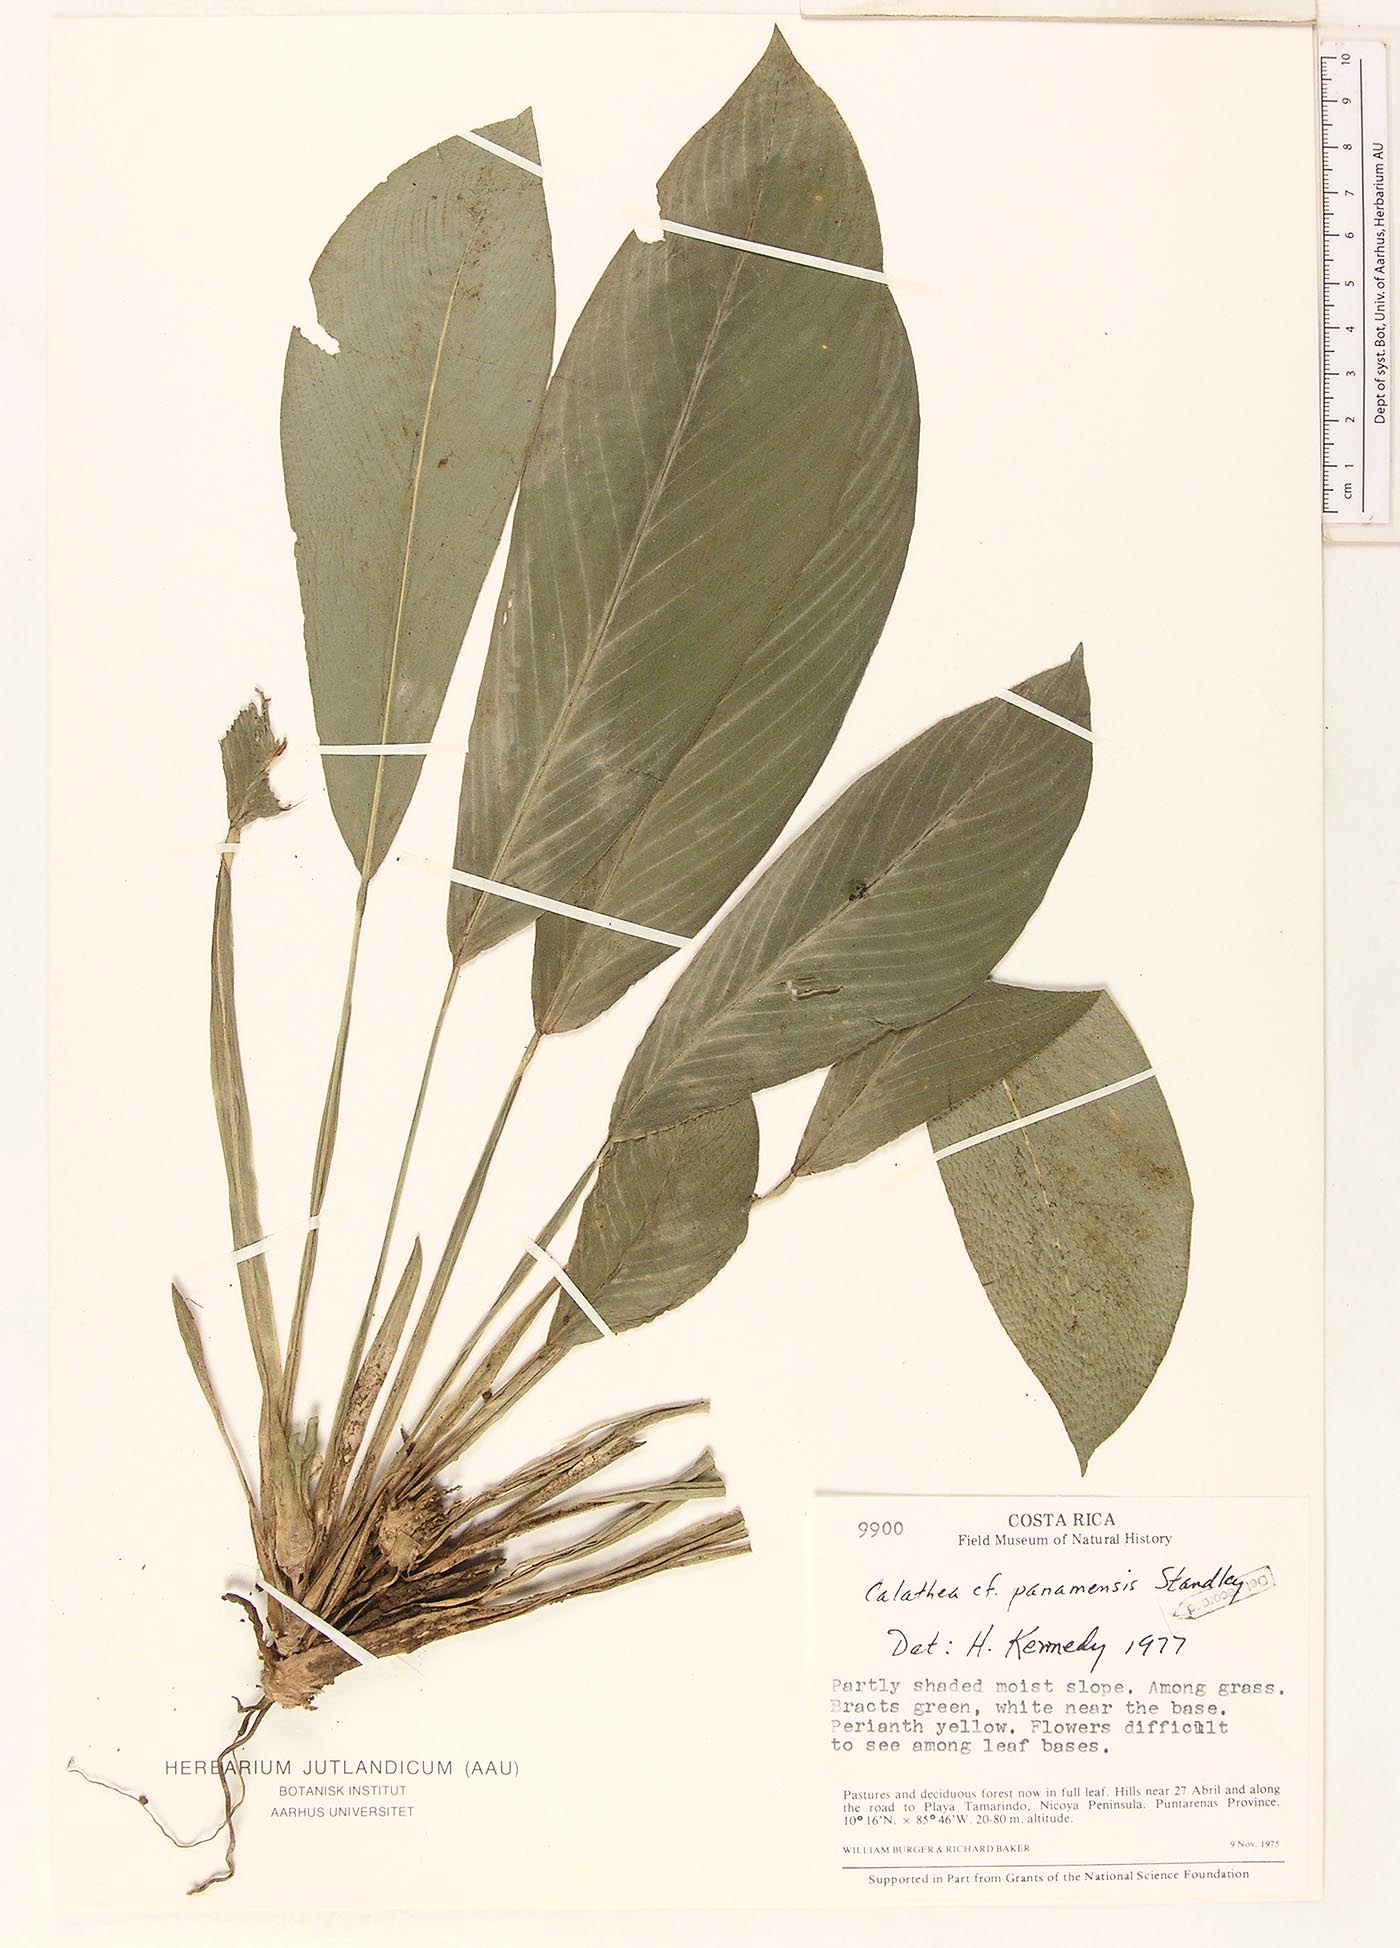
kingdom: Plantae
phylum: Tracheophyta
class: Liliopsida
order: Zingiberales
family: Marantaceae
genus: Goeppertia
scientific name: Goeppertia panamensis
